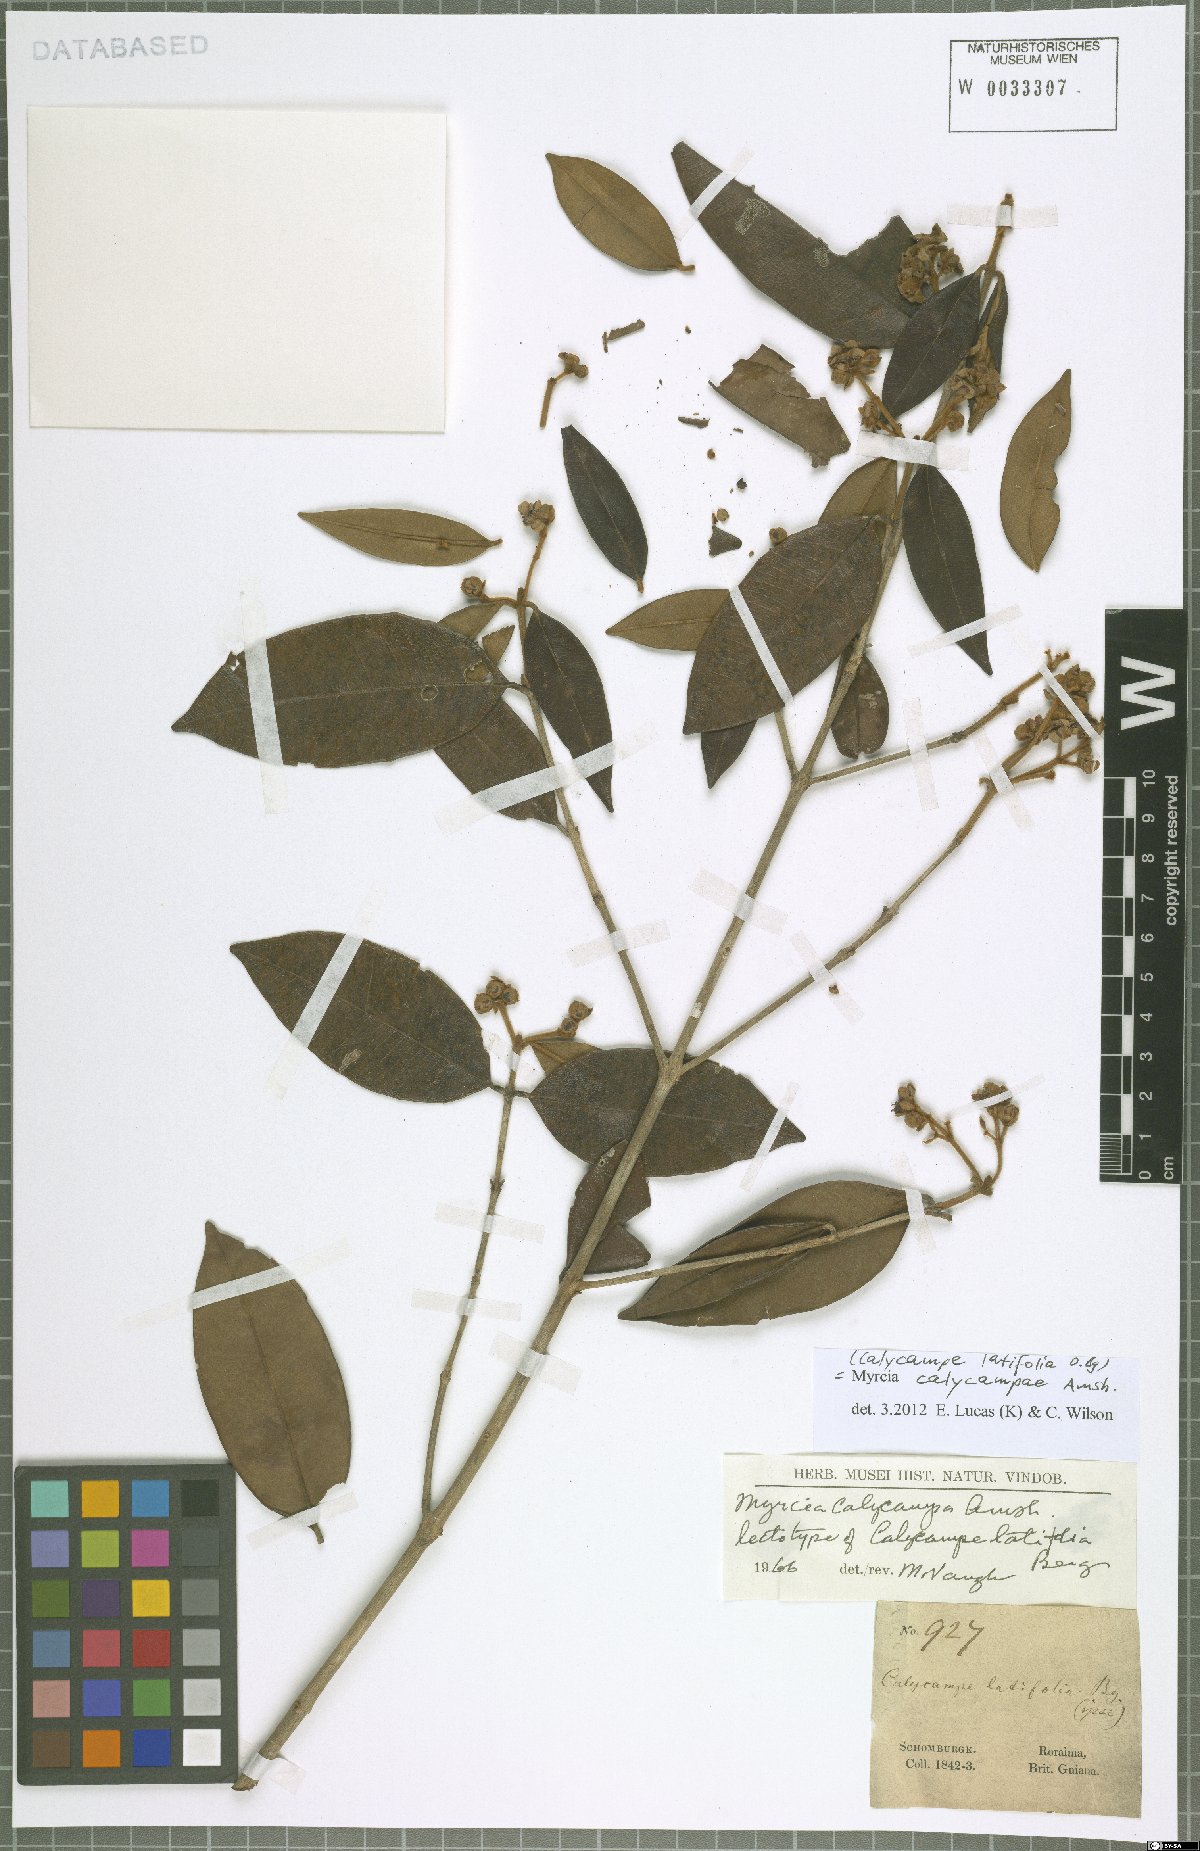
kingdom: Plantae
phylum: Tracheophyta
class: Magnoliopsida
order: Myrtales
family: Myrtaceae
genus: Myrcia
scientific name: Myrcia calycampa
